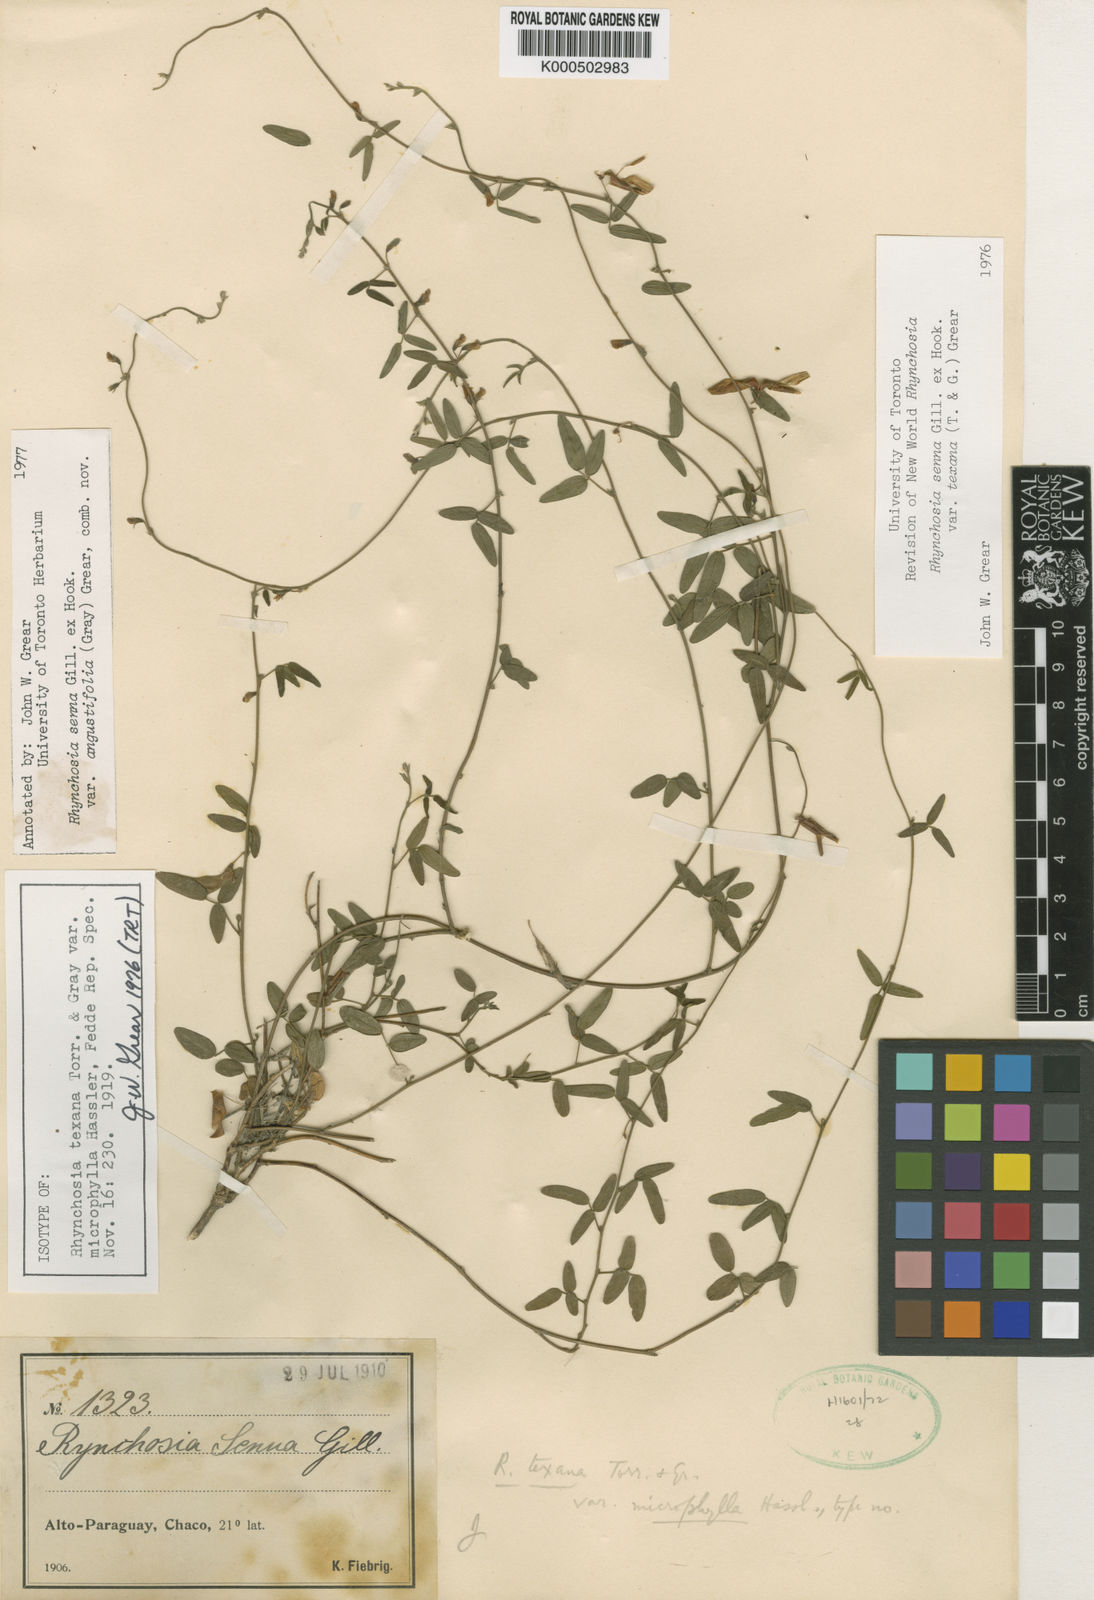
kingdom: Plantae
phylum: Tracheophyta
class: Magnoliopsida
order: Fabales
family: Fabaceae
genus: Rhynchosia
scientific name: Rhynchosia senna
